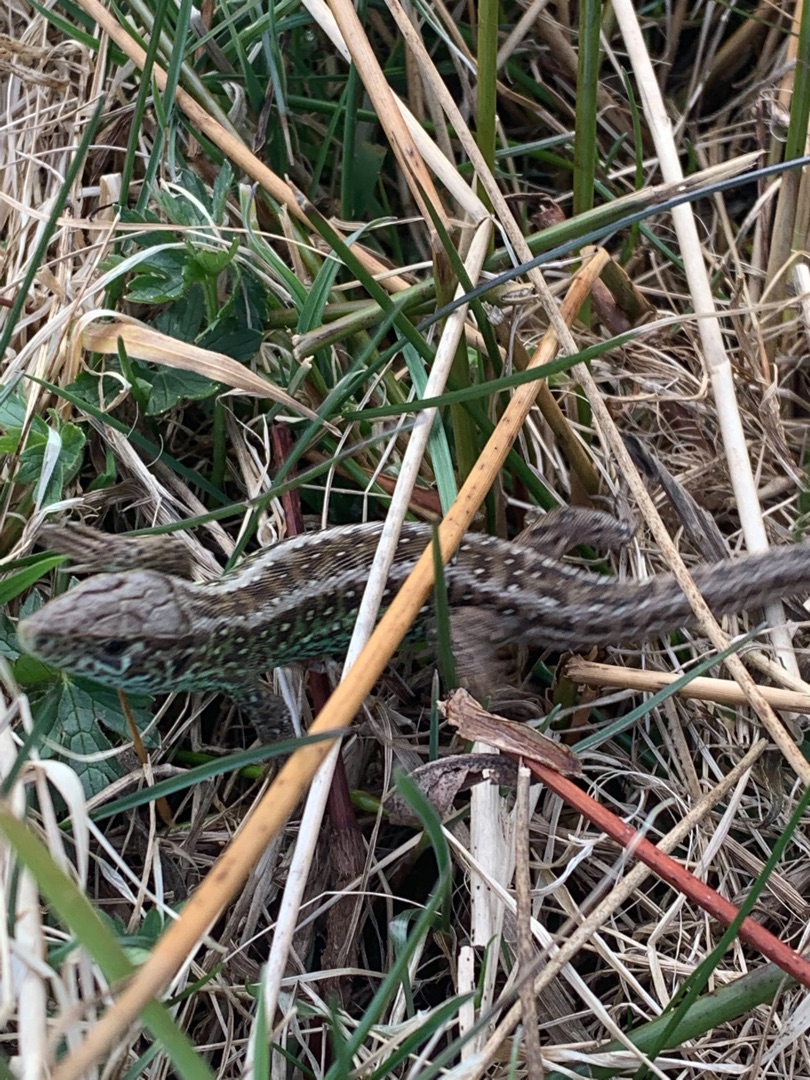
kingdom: Animalia
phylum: Chordata
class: Squamata
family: Lacertidae
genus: Lacerta
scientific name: Lacerta agilis
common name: Markfirben
